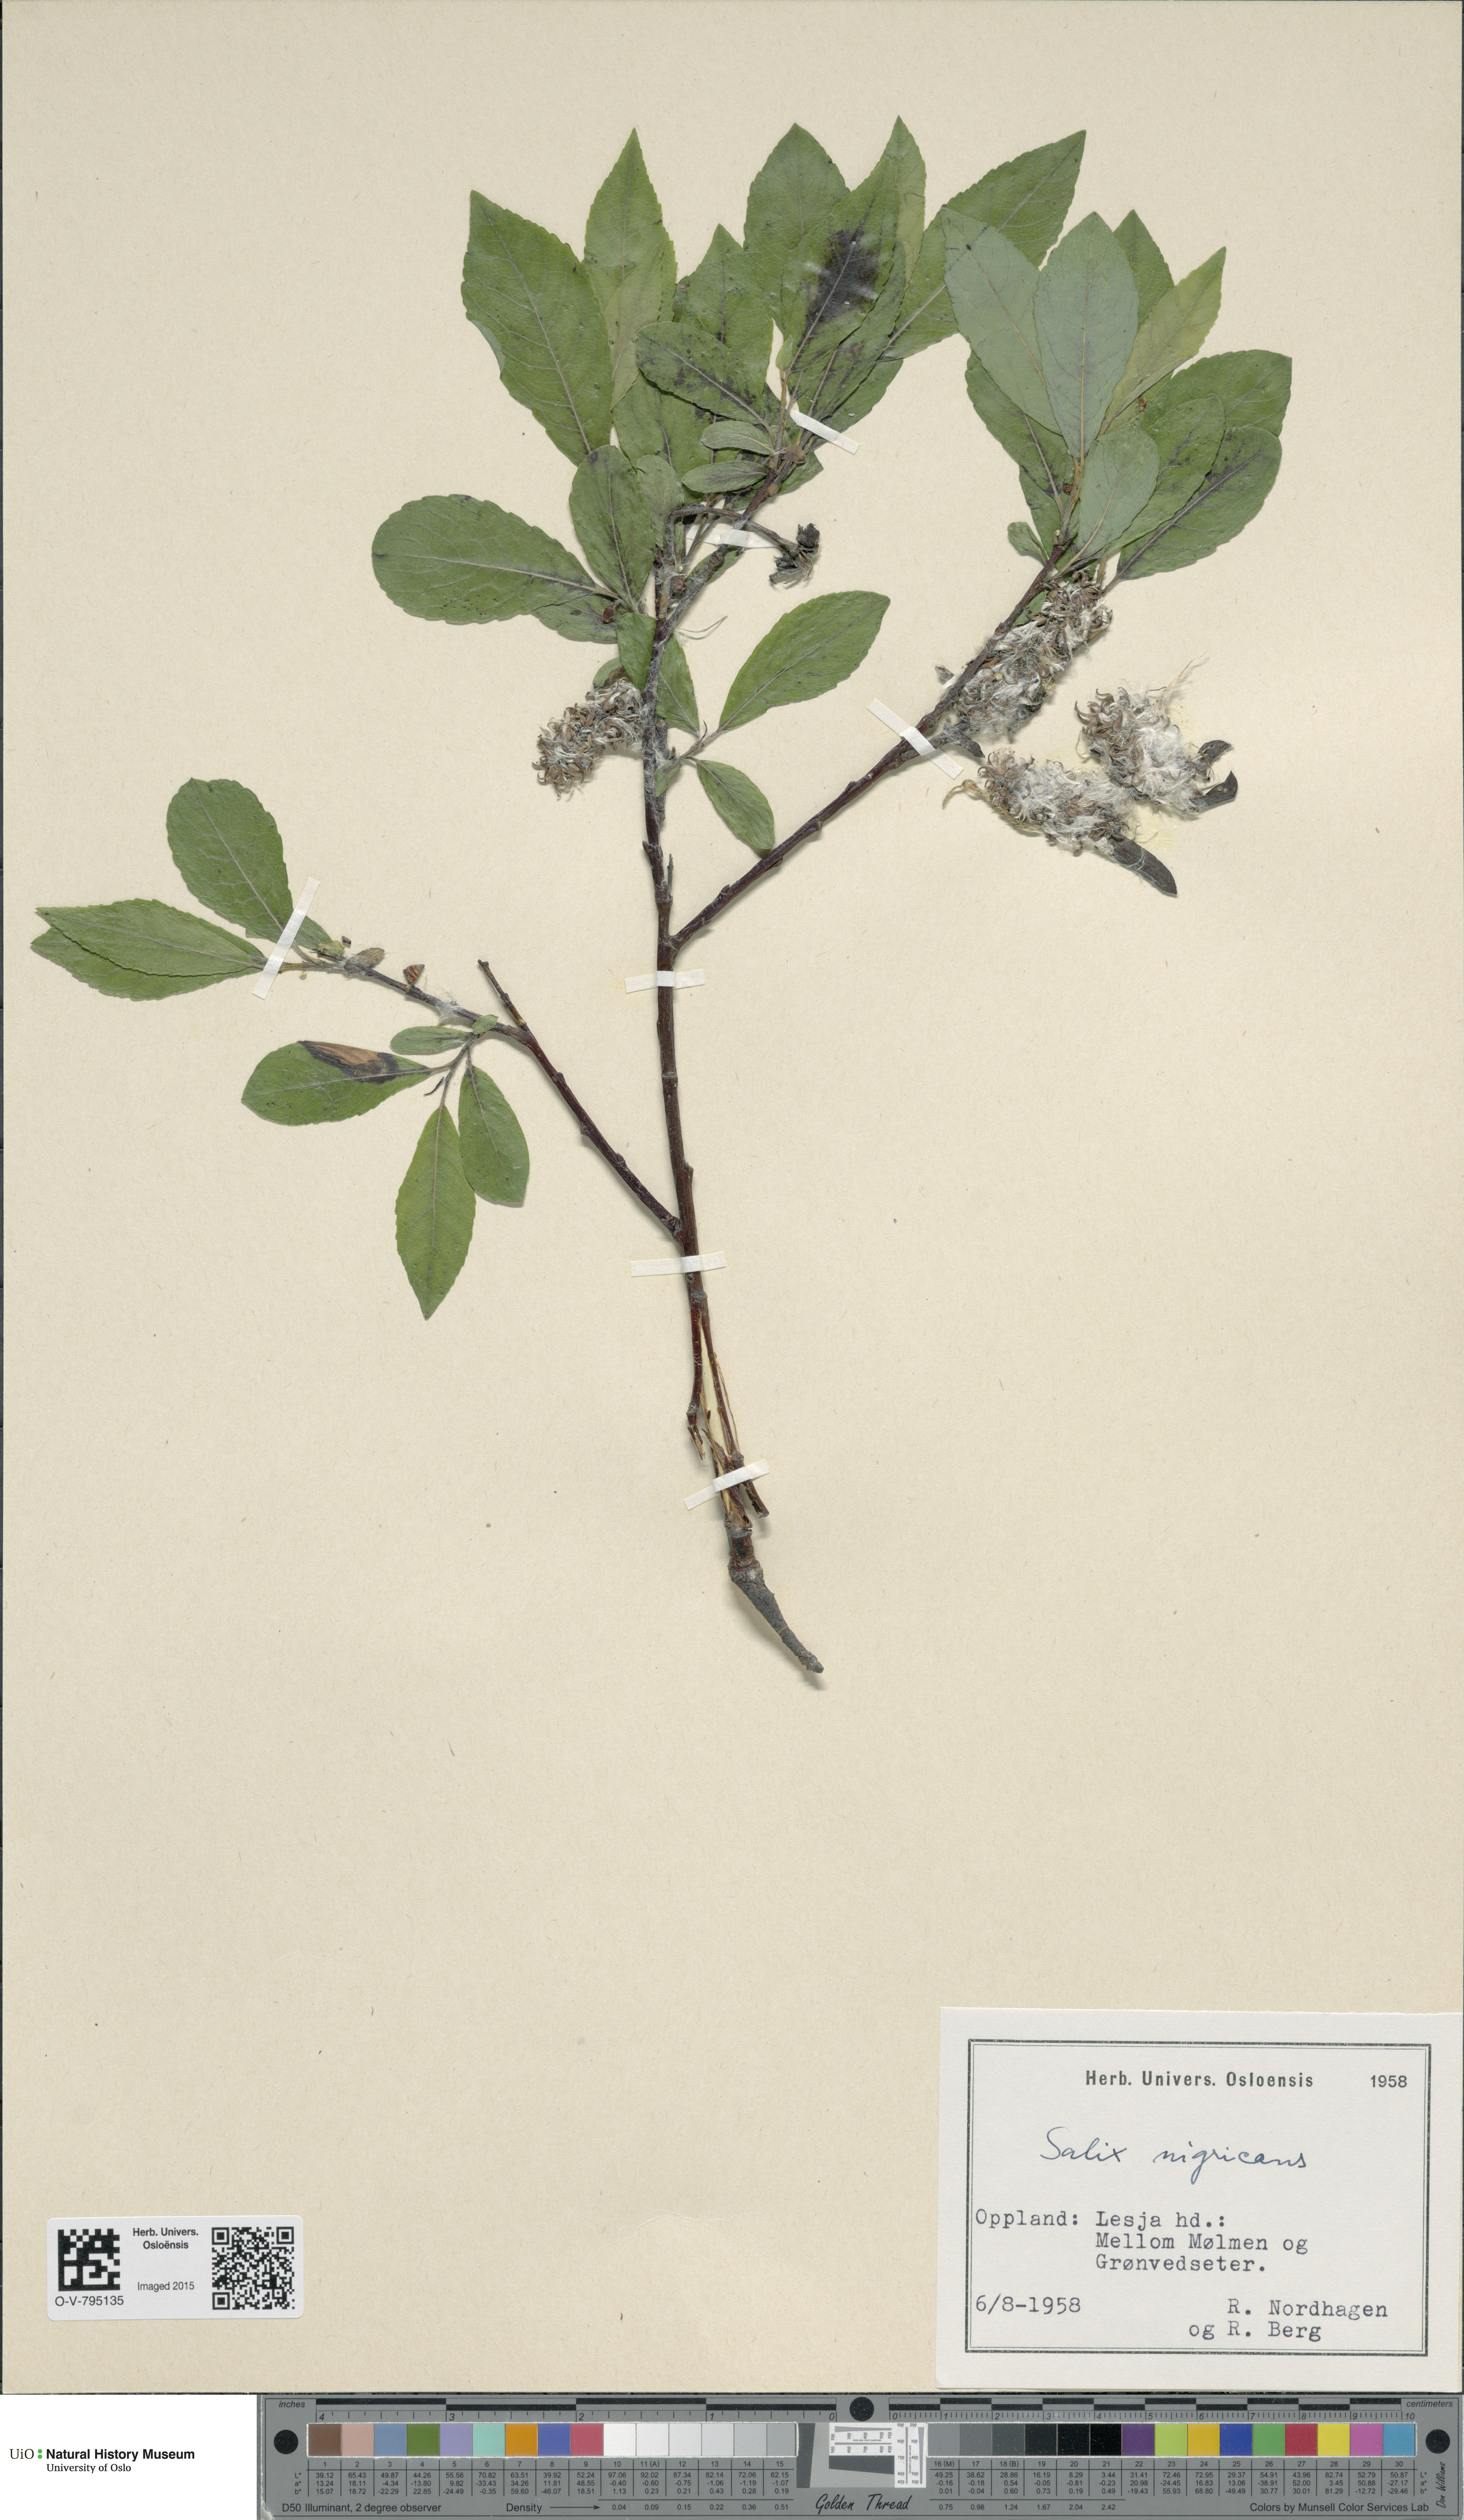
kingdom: Plantae
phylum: Tracheophyta
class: Magnoliopsida
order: Malpighiales
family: Salicaceae
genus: Salix
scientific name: Salix myrsinifolia
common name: Dark-leaved willow
